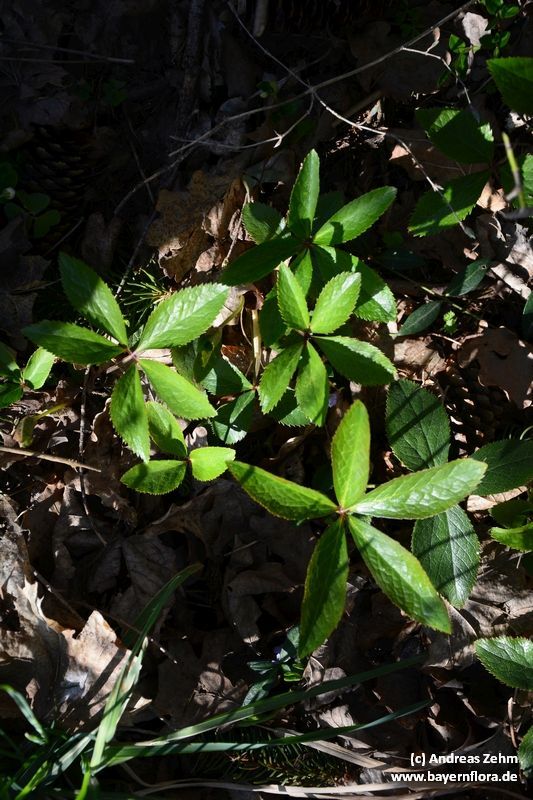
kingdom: Plantae
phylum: Tracheophyta
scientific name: Tracheophyta
